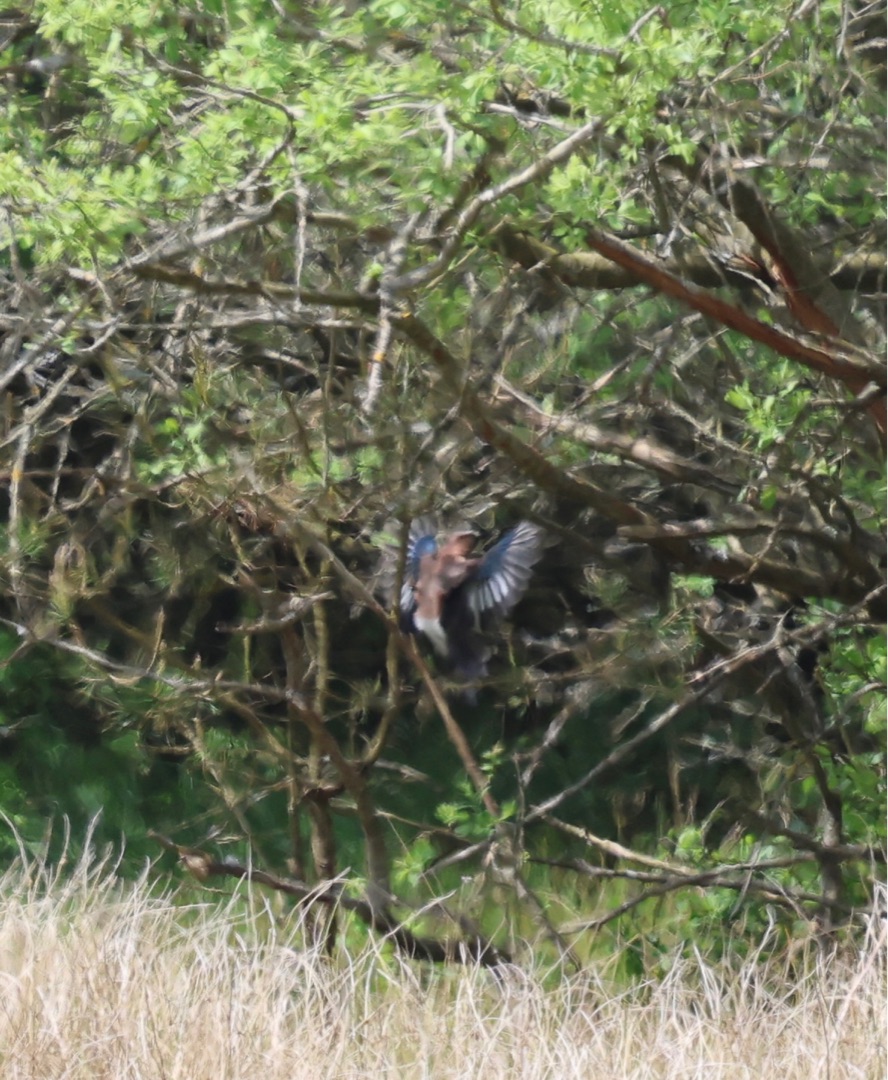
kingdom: Animalia
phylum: Chordata
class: Aves
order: Passeriformes
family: Corvidae
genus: Garrulus
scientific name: Garrulus glandarius
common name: Skovskade
